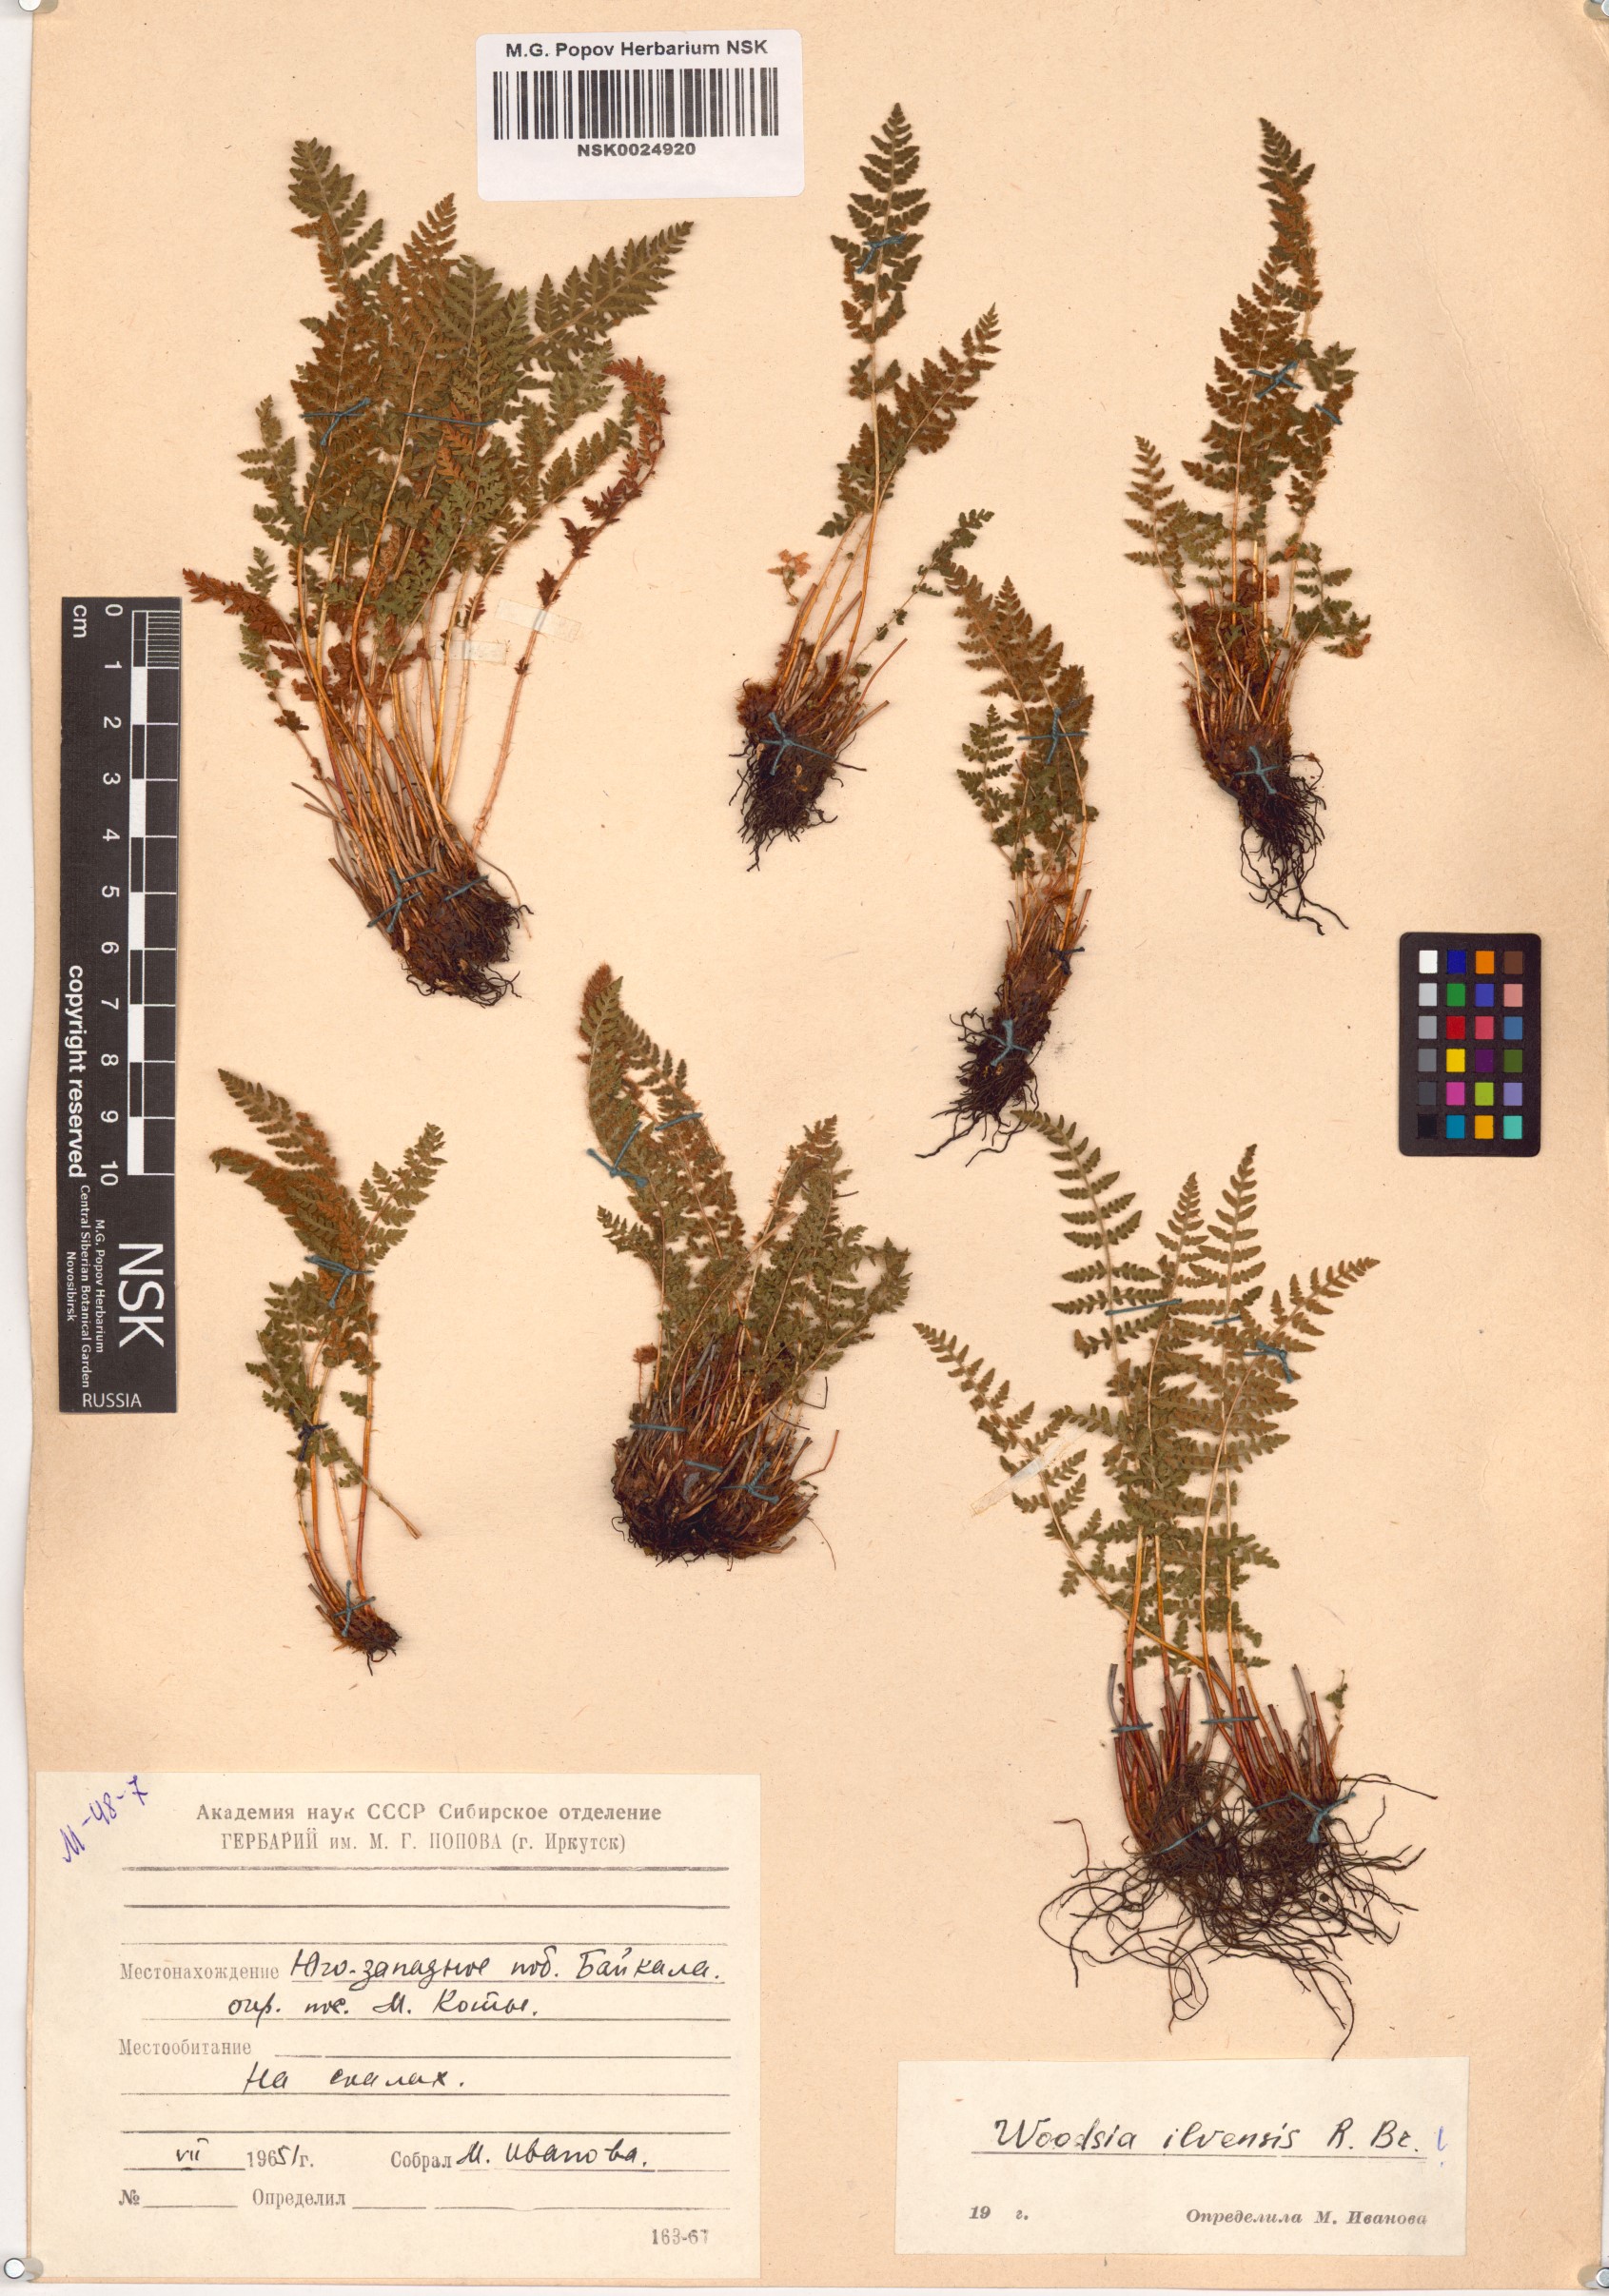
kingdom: Plantae
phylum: Tracheophyta
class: Polypodiopsida
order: Polypodiales
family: Woodsiaceae
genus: Woodsia
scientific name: Woodsia ilvensis
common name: Fragrant woodsia
